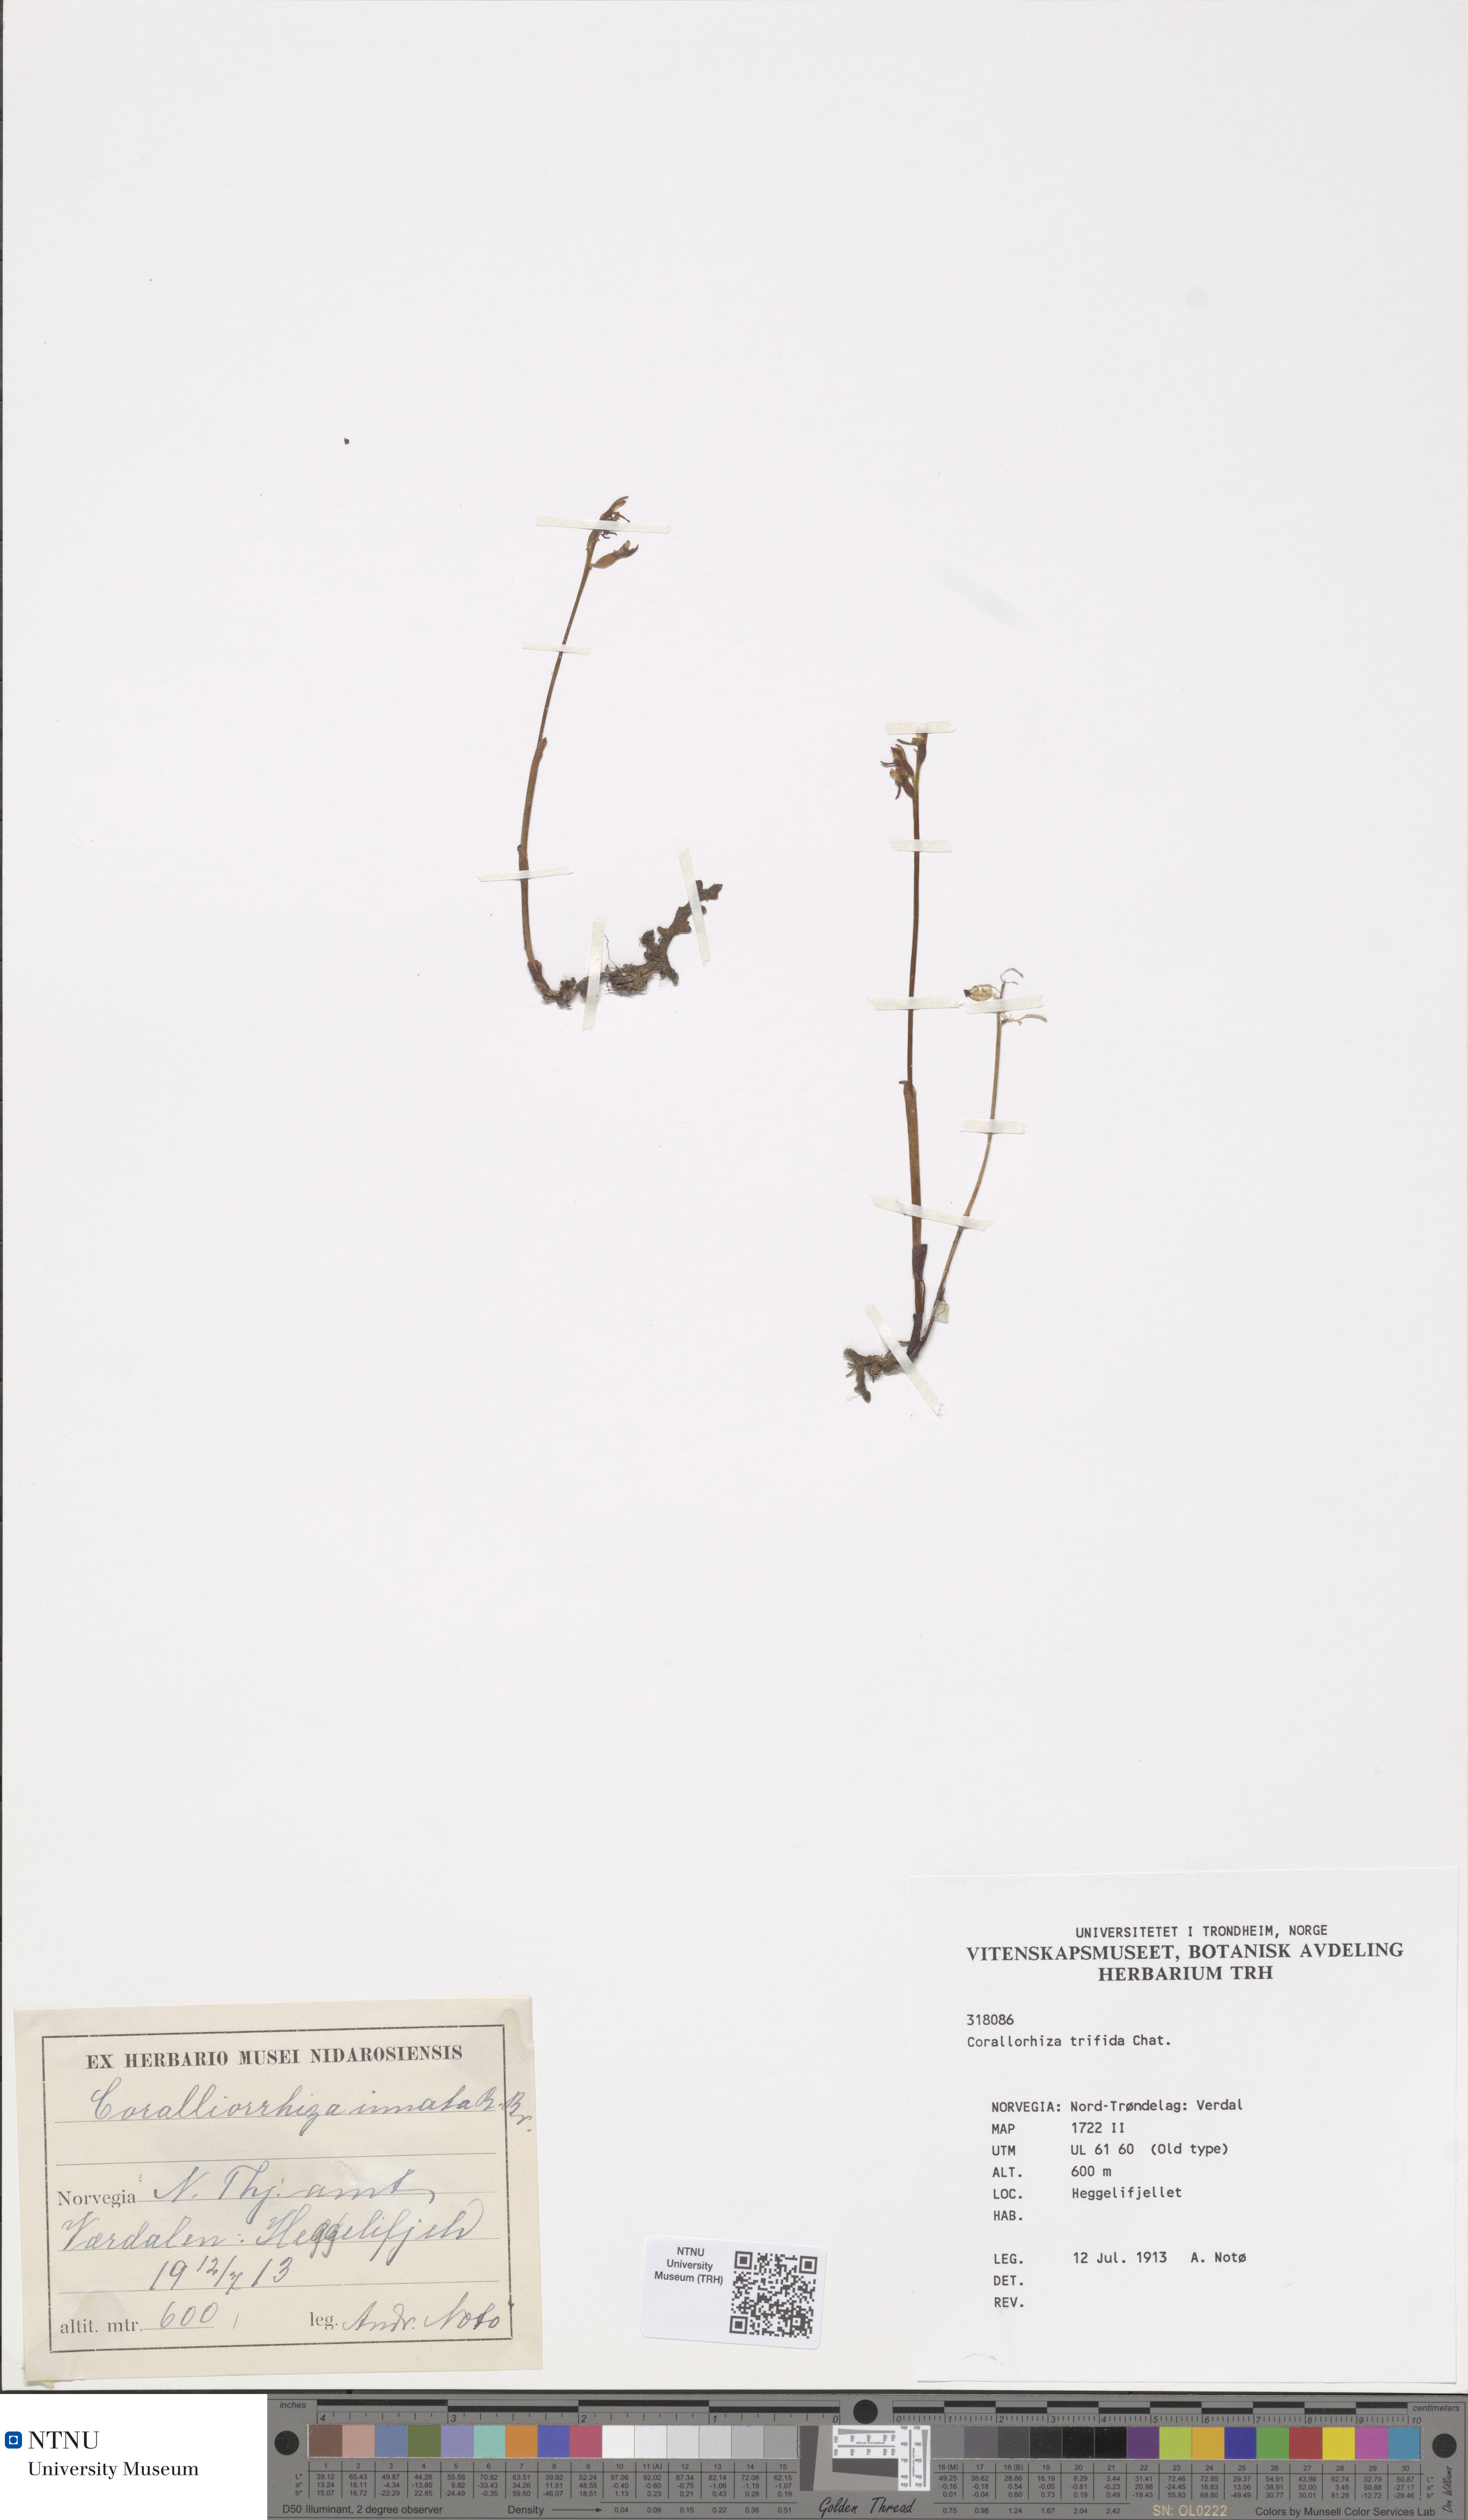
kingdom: Plantae
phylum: Tracheophyta
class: Liliopsida
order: Asparagales
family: Orchidaceae
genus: Corallorhiza
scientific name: Corallorhiza trifida
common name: Yellow coralroot
